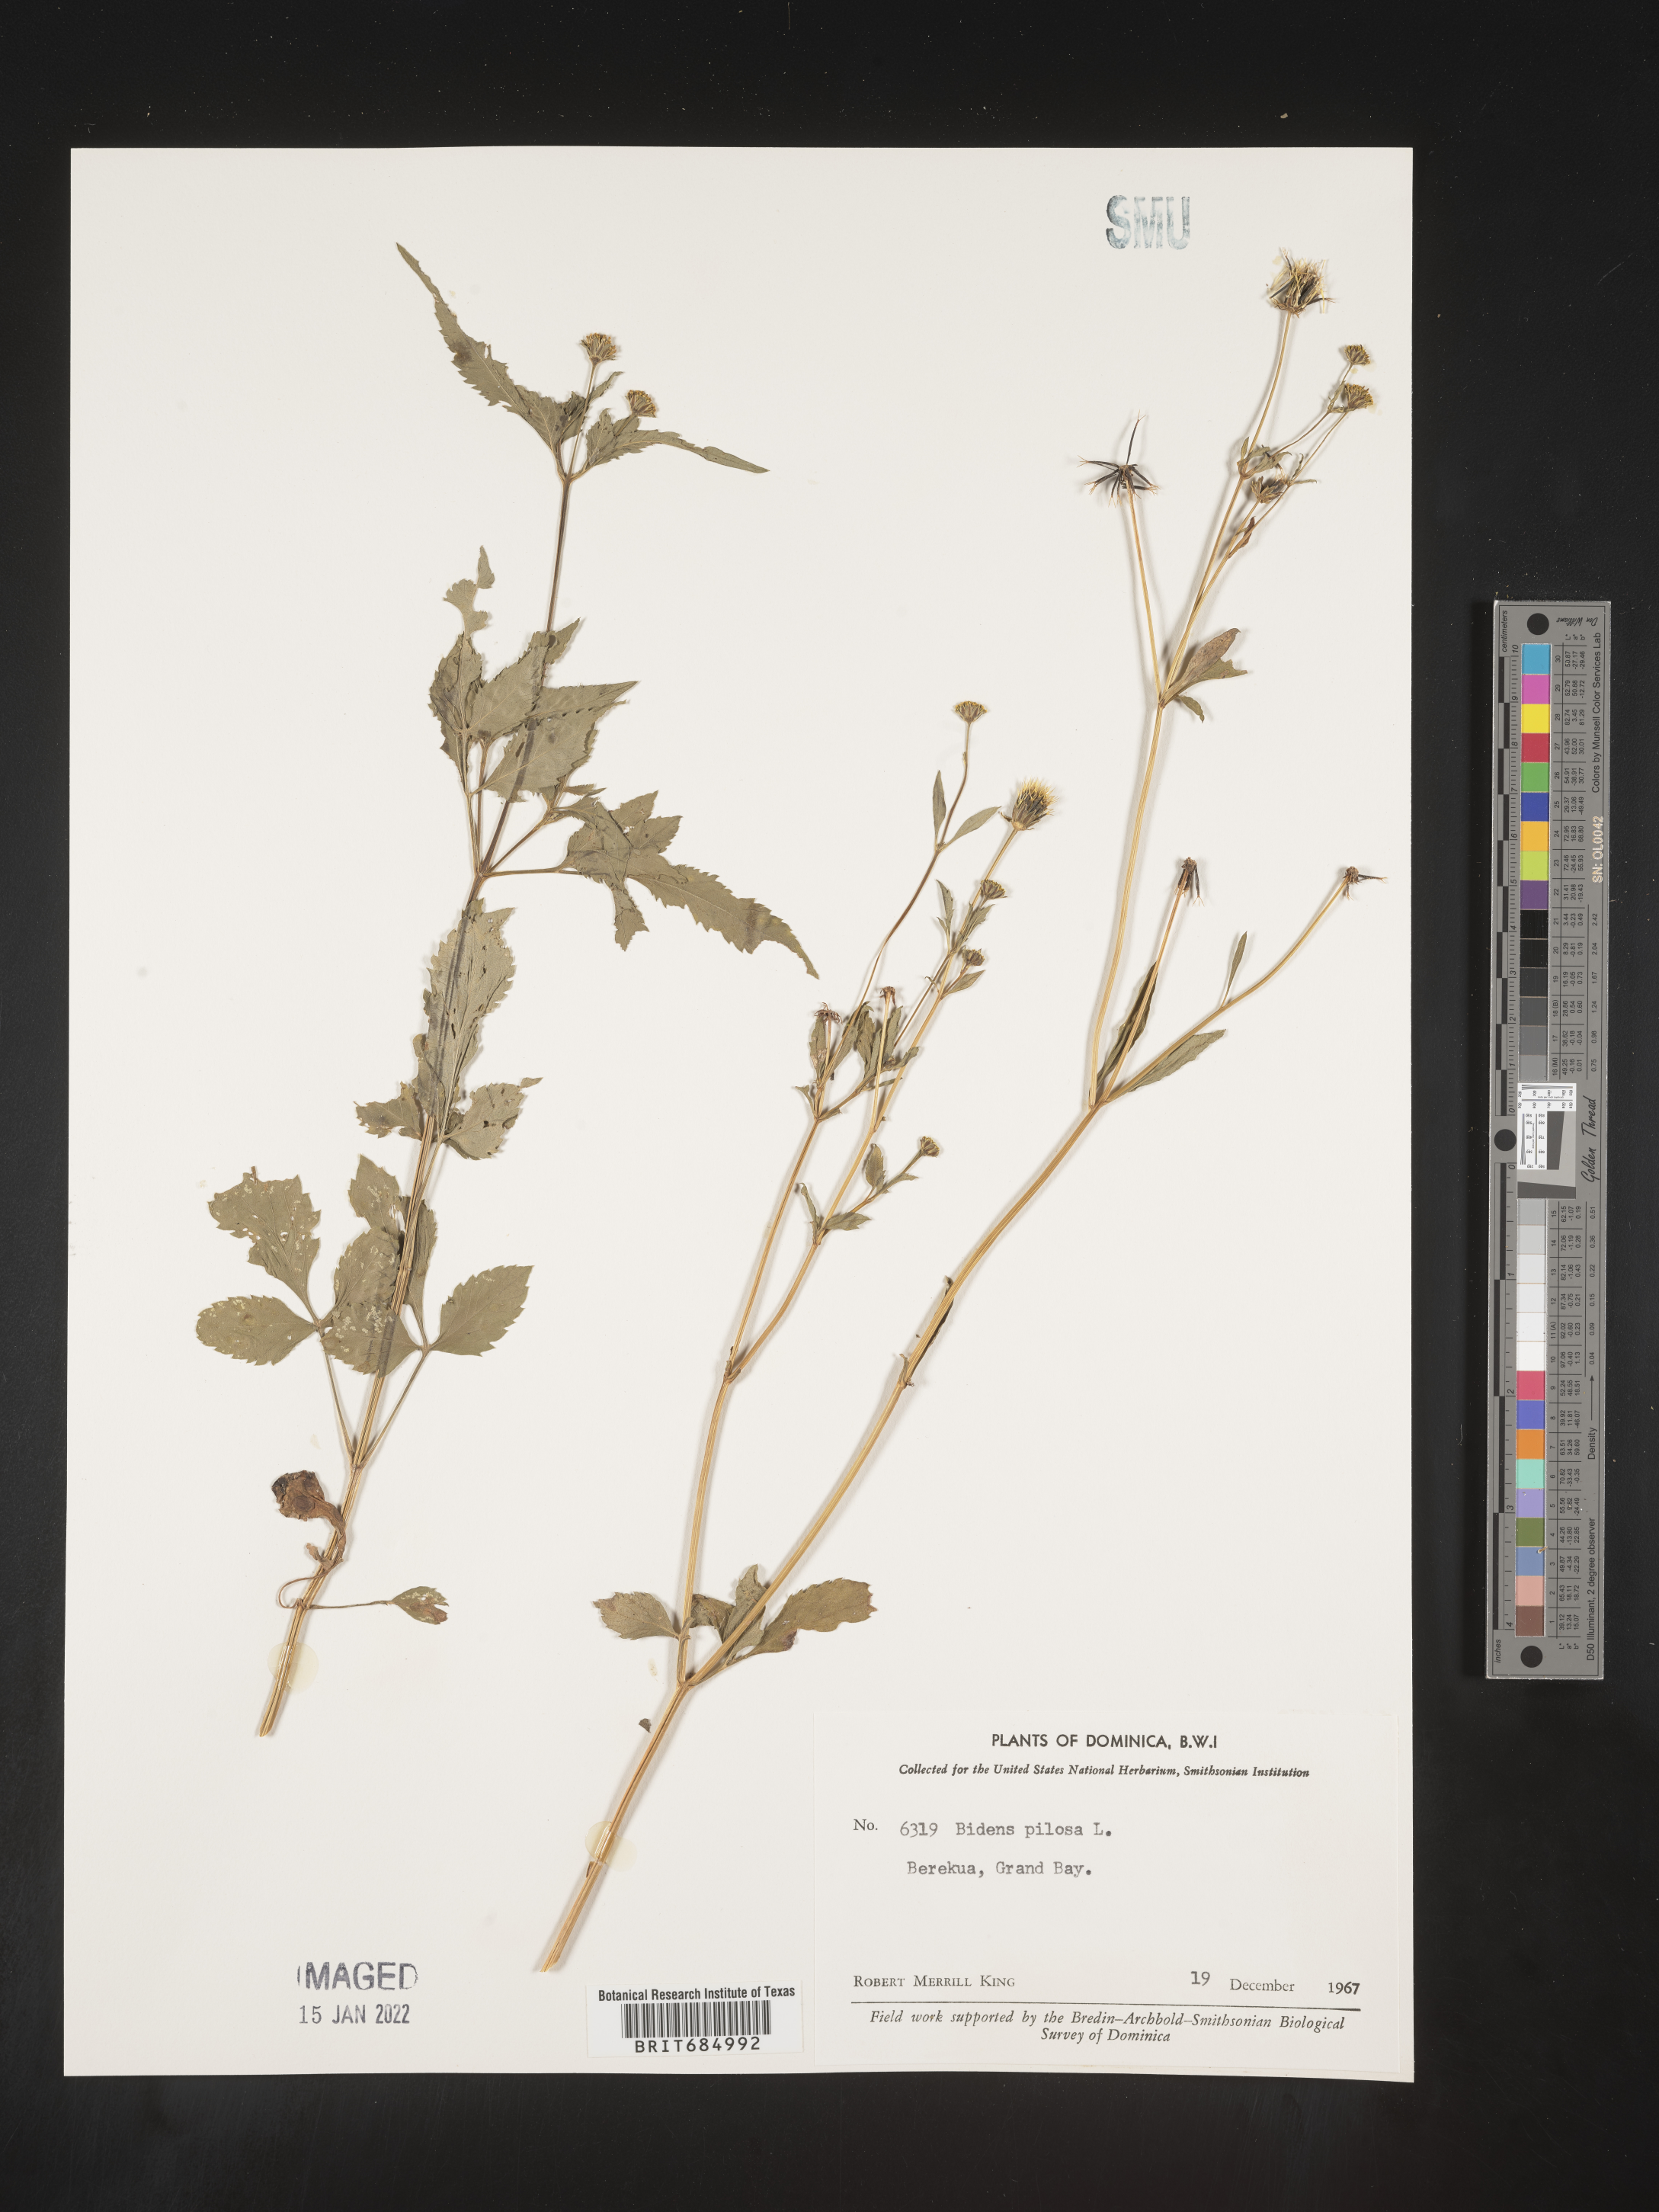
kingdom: Plantae
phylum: Tracheophyta
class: Magnoliopsida
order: Asterales
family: Asteraceae
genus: Bidens
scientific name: Bidens
